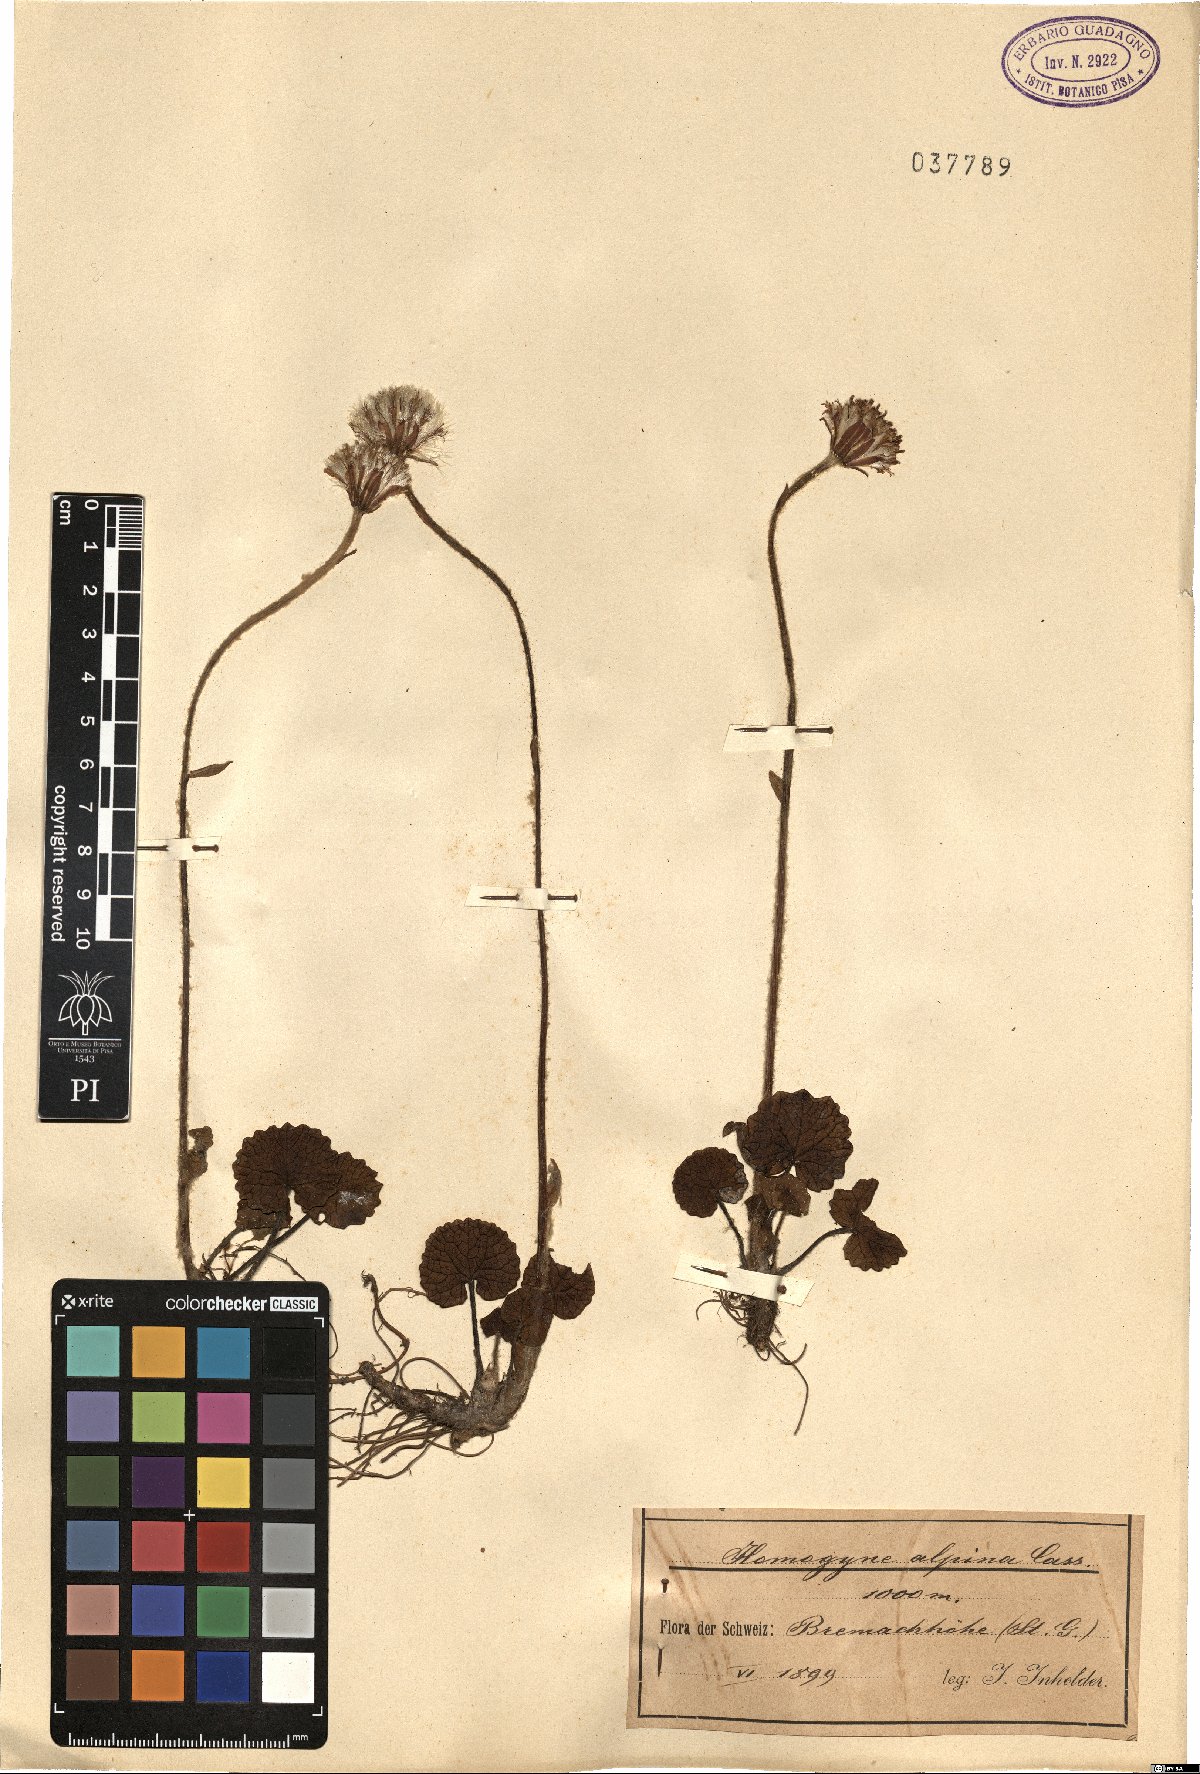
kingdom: Plantae
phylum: Tracheophyta
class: Magnoliopsida
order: Asterales
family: Asteraceae
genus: Homogyne
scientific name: Homogyne alpina
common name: Purple colt's-foot
